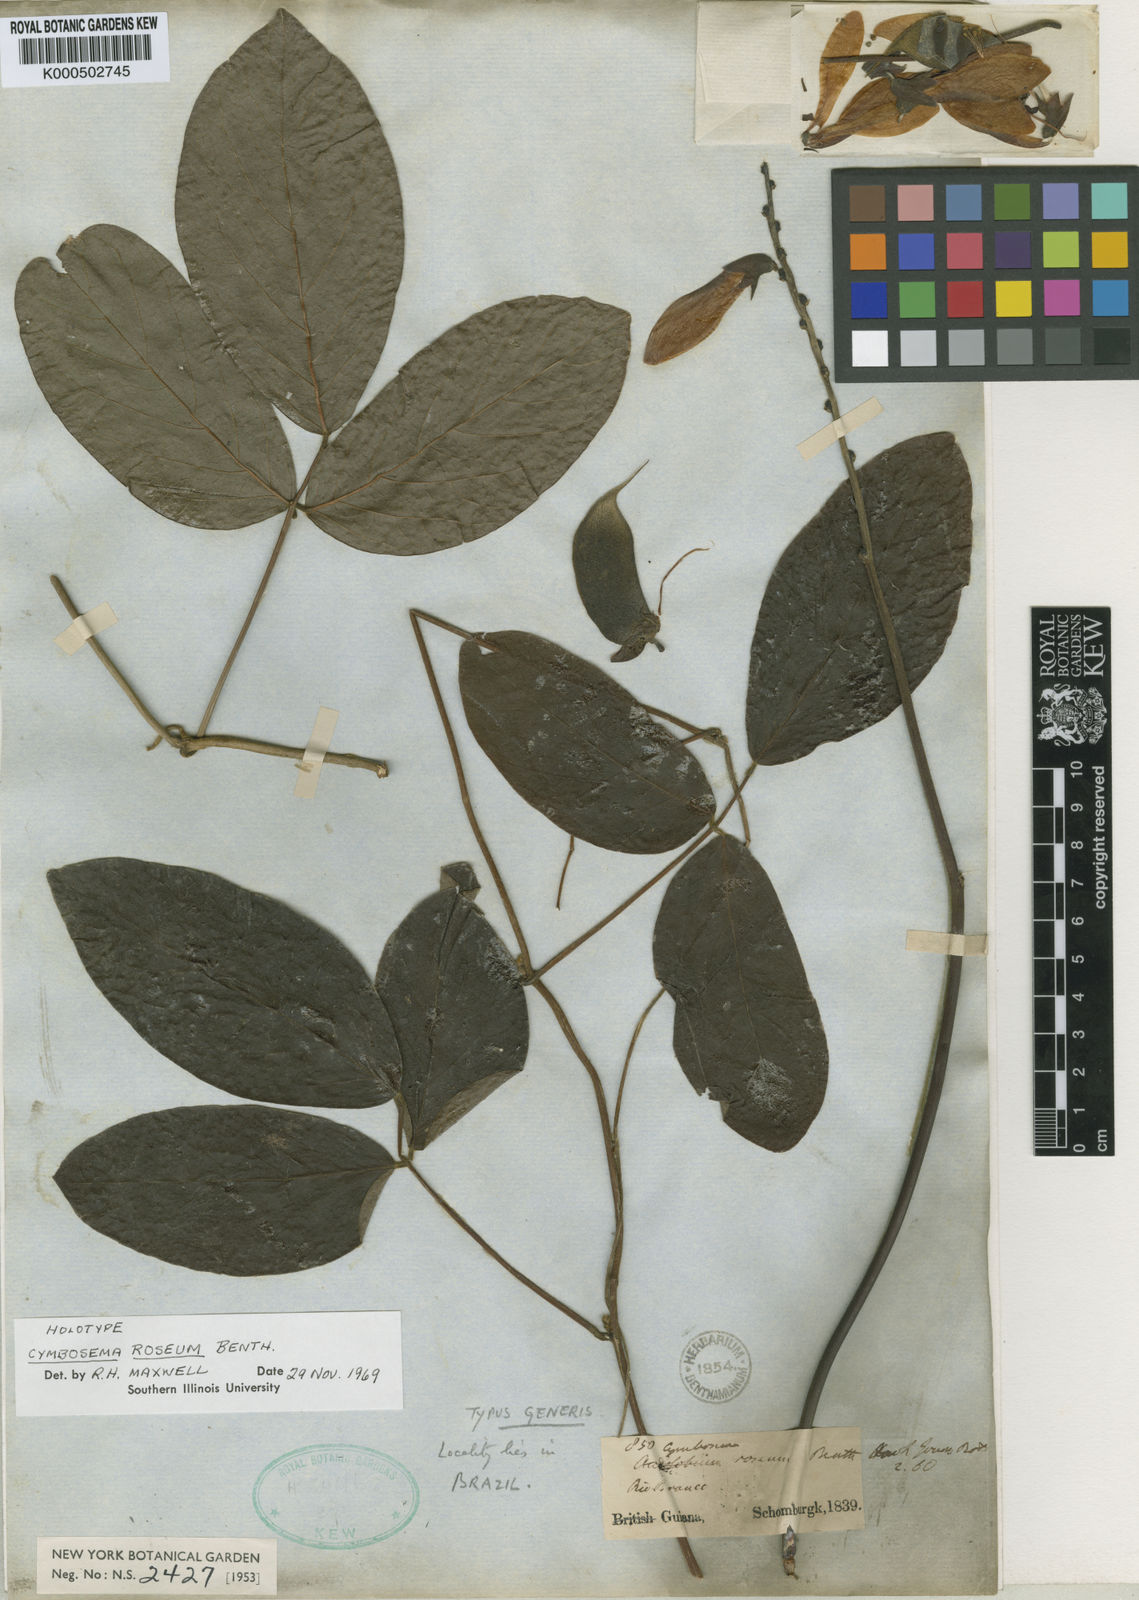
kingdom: Plantae
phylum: Tracheophyta
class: Magnoliopsida
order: Fabales
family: Fabaceae
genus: Cymbosema
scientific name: Cymbosema roseum
